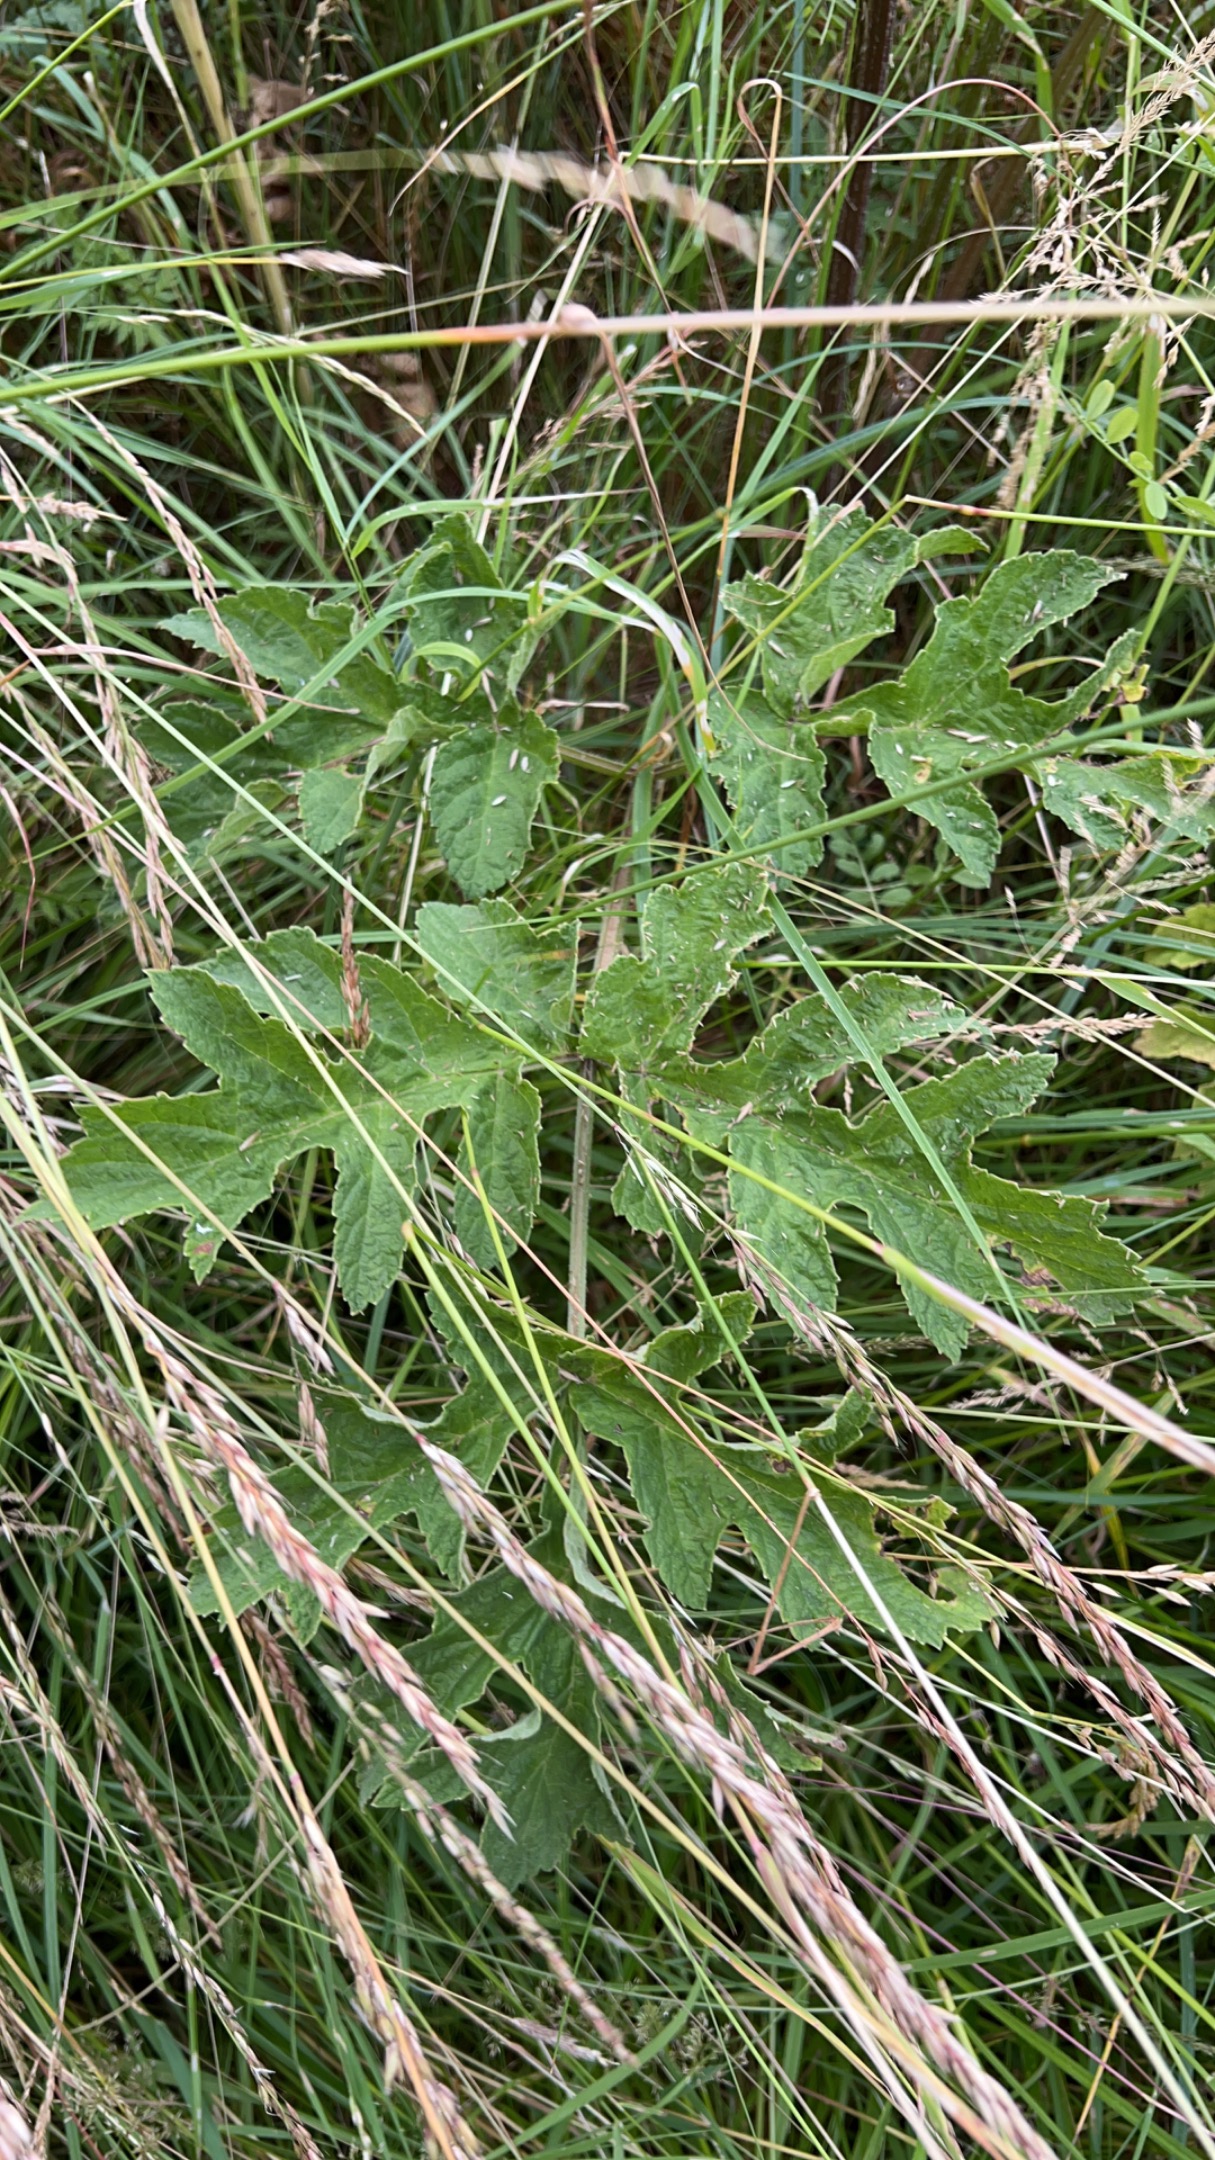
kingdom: Plantae
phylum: Tracheophyta
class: Magnoliopsida
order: Apiales
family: Apiaceae
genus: Heracleum
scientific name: Heracleum sphondylium
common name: Almindelig bjørneklo
